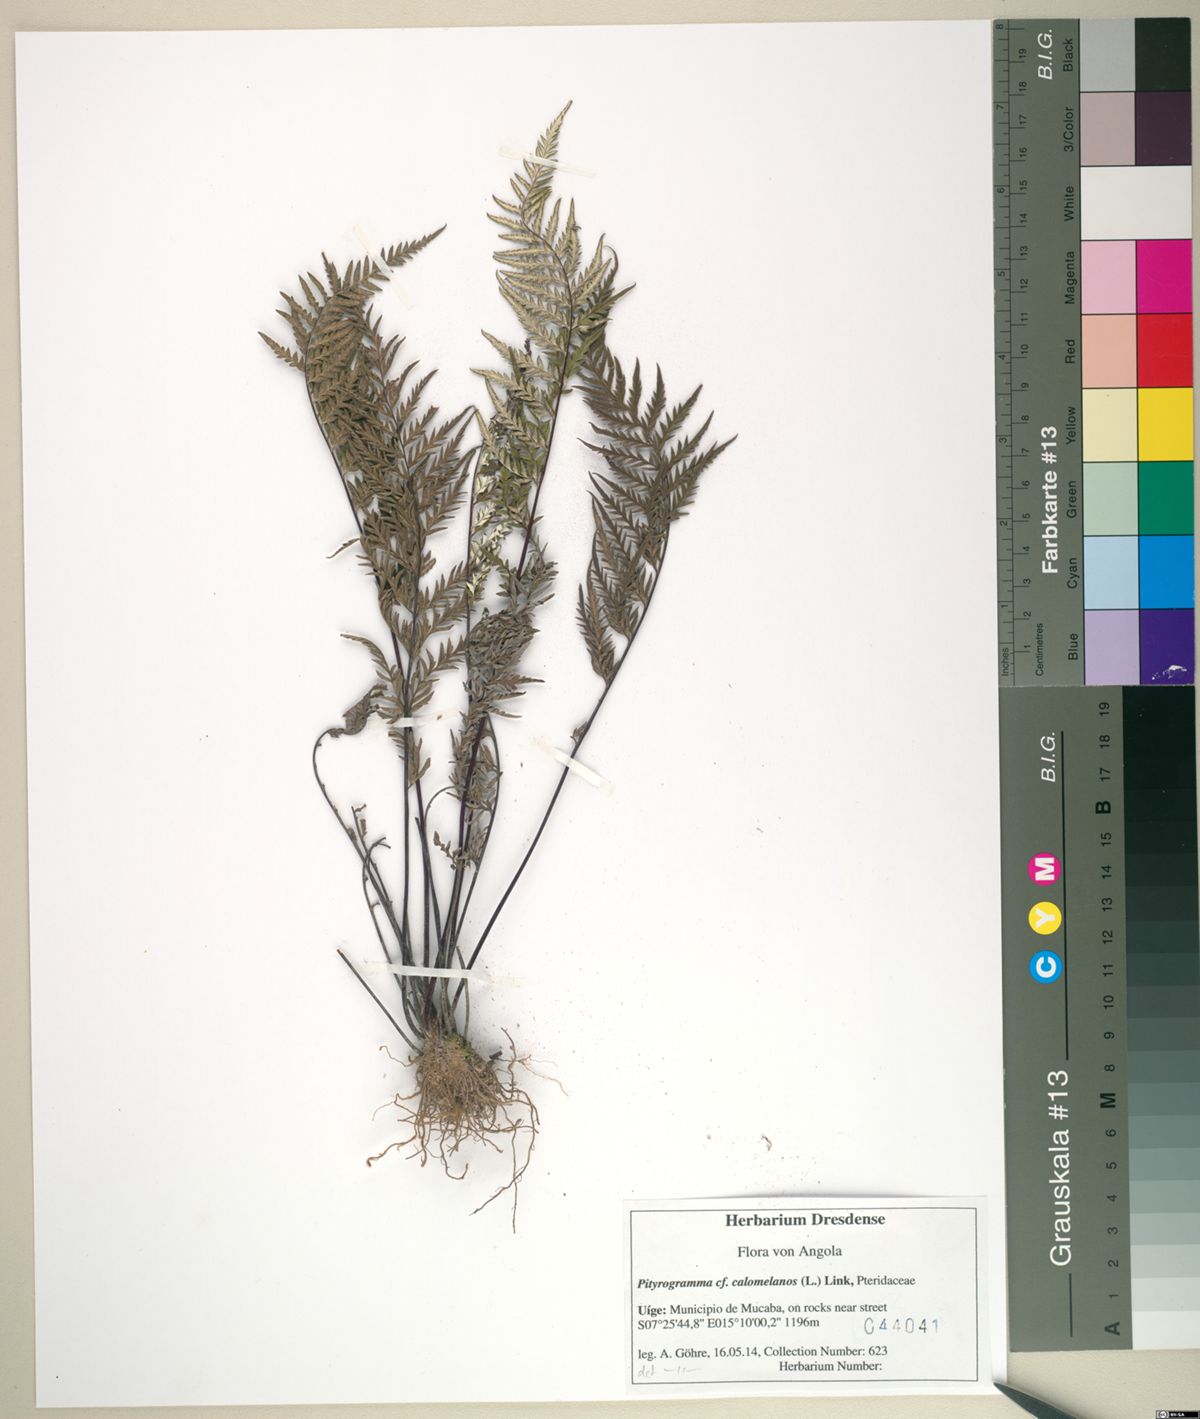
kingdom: Plantae
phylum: Tracheophyta
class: Polypodiopsida
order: Polypodiales
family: Pteridaceae
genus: Pityrogramma
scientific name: Pityrogramma calomelanos
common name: Dixie silverback fern
